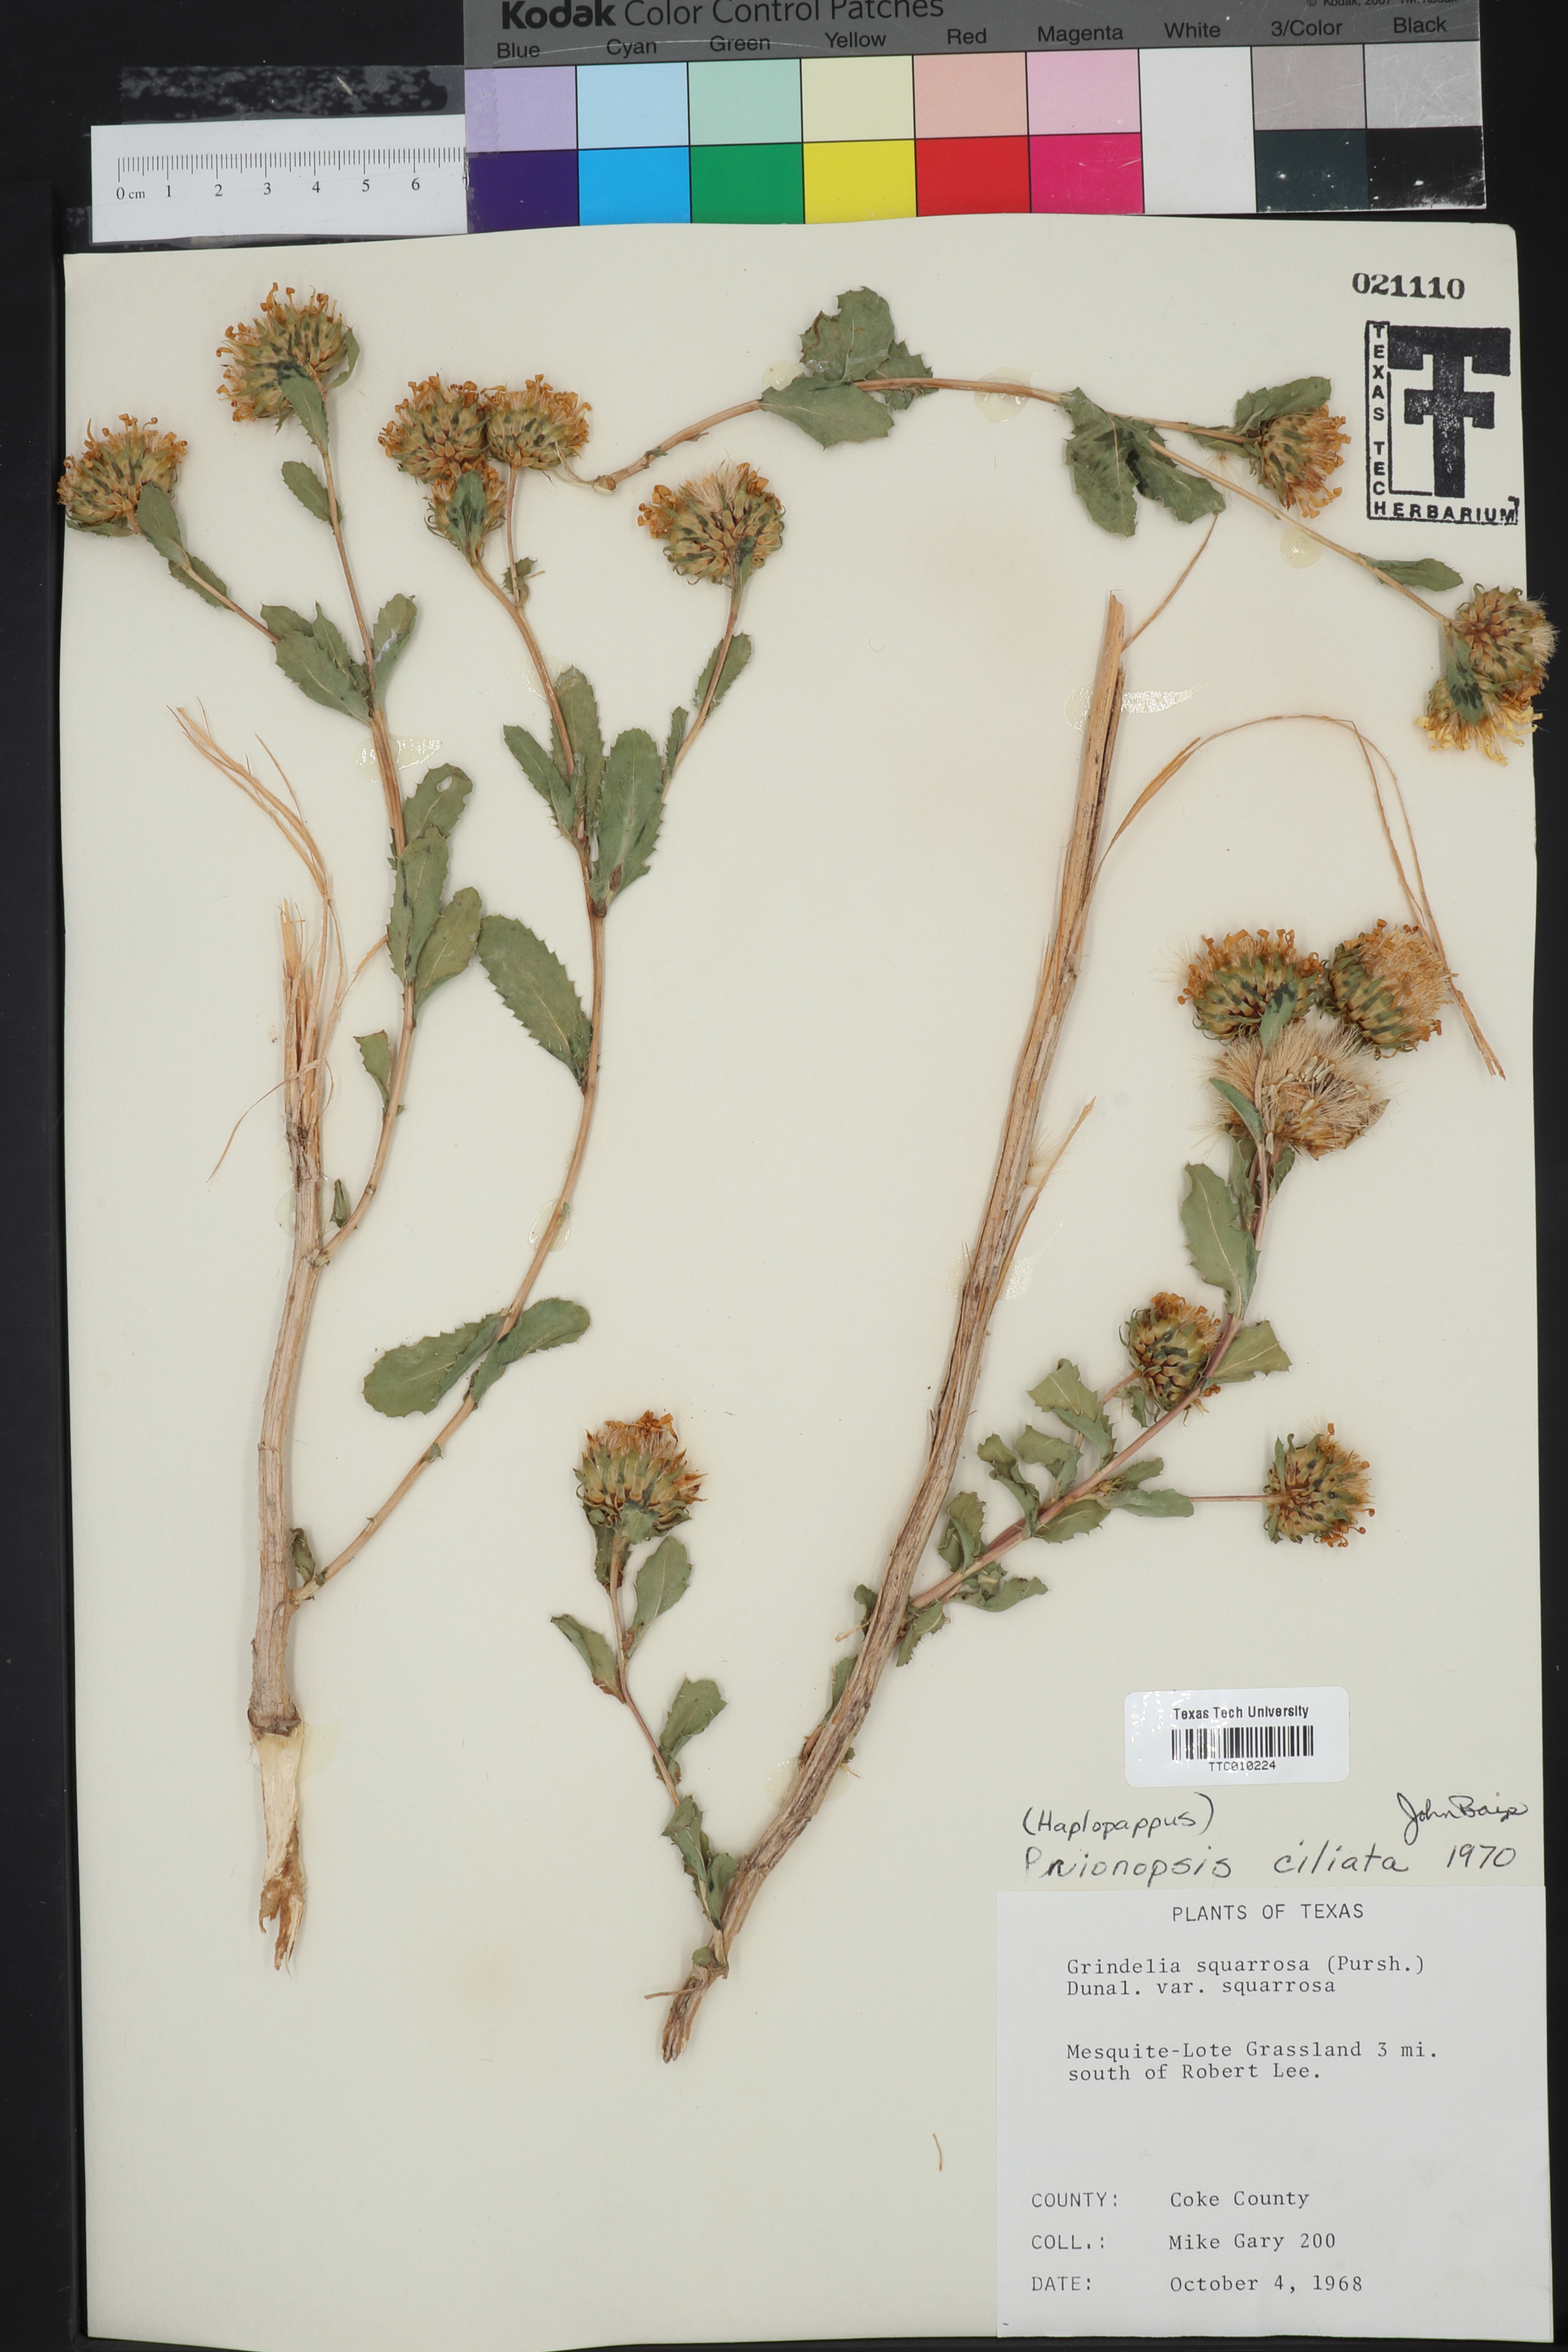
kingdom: Plantae
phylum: Tracheophyta
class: Magnoliopsida
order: Asterales
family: Asteraceae
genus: Grindelia
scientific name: Grindelia ciliata
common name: Goldenweed
